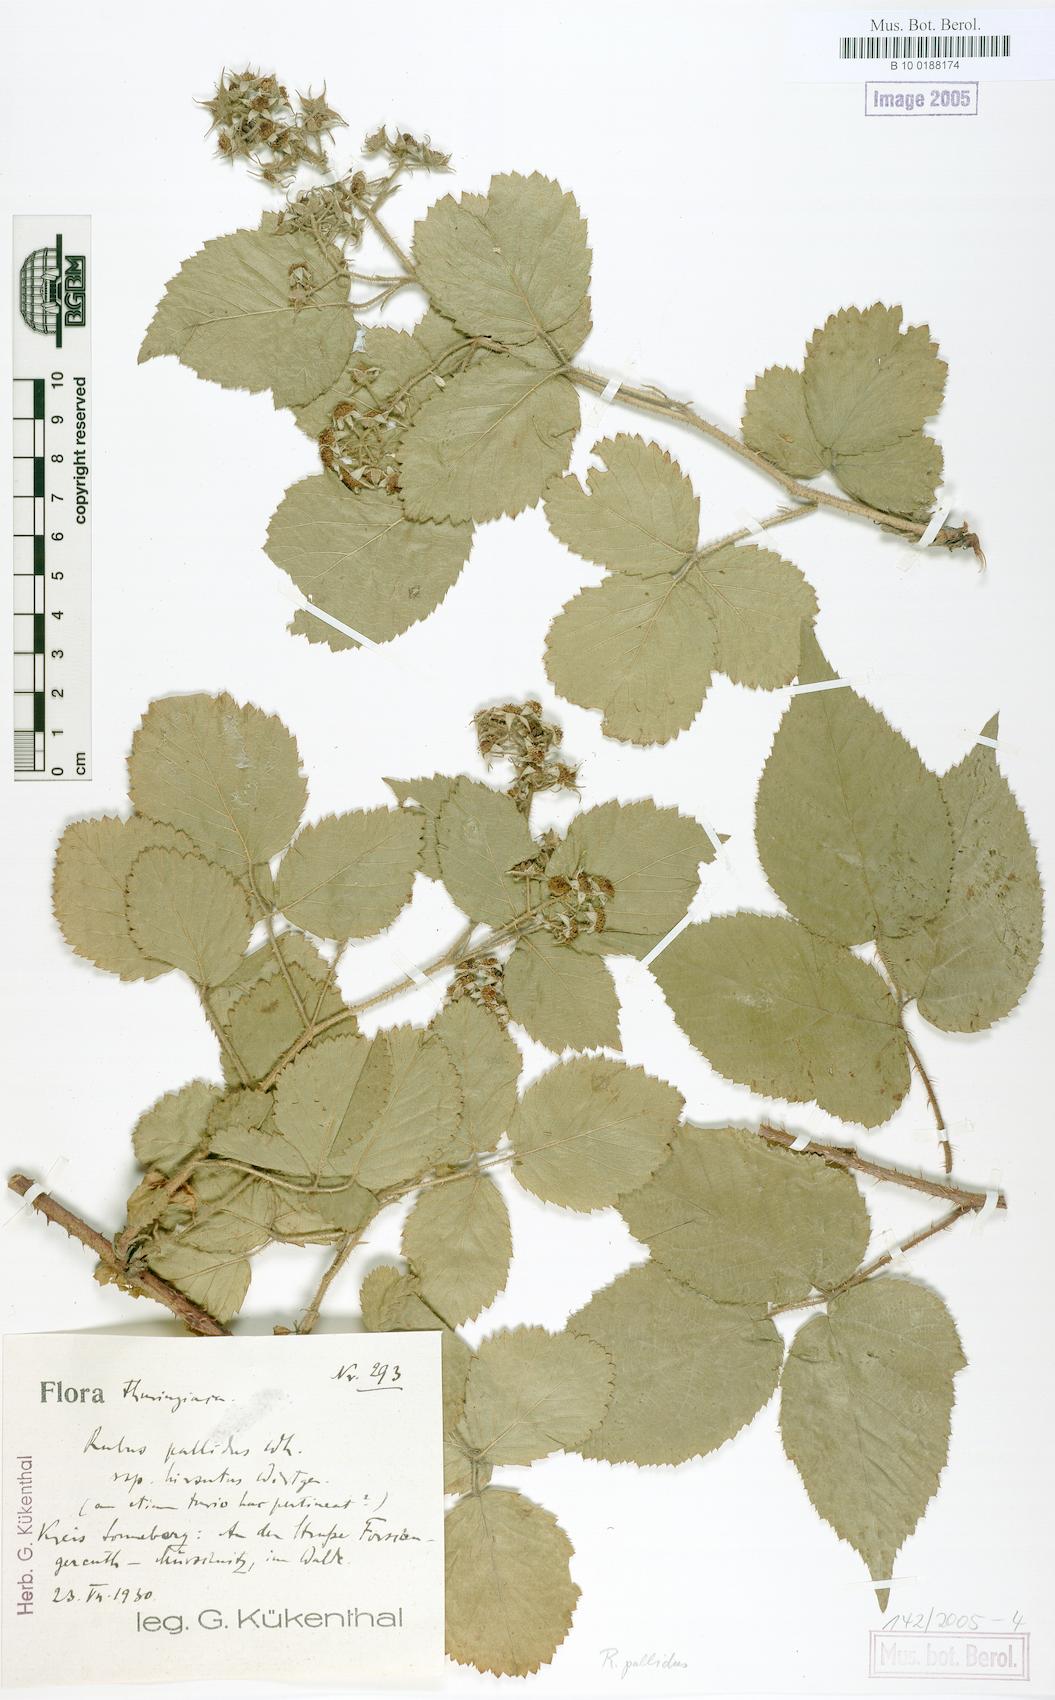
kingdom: Plantae
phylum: Tracheophyta
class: Magnoliopsida
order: Rosales
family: Rosaceae
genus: Rubus
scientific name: Rubus pallidus
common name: Pale bramble
